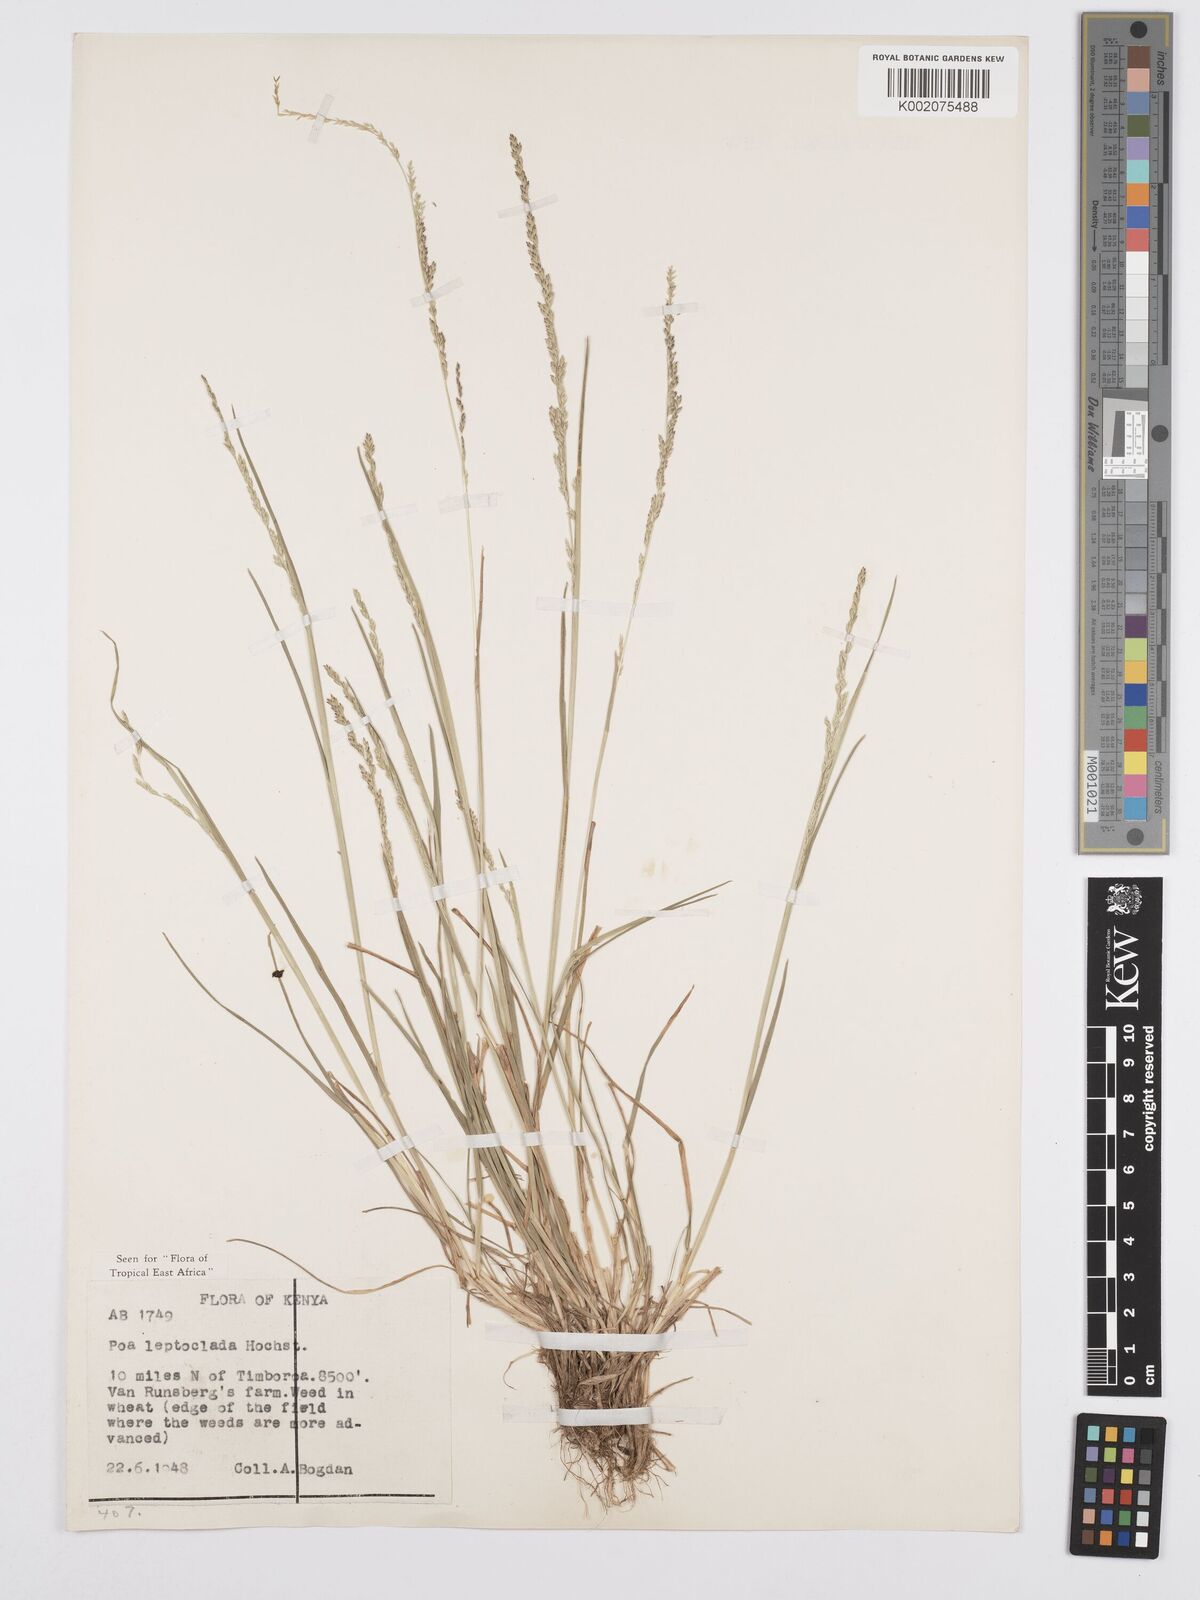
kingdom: Plantae
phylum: Tracheophyta
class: Liliopsida
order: Poales
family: Poaceae
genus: Poa
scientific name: Poa leptoclada
